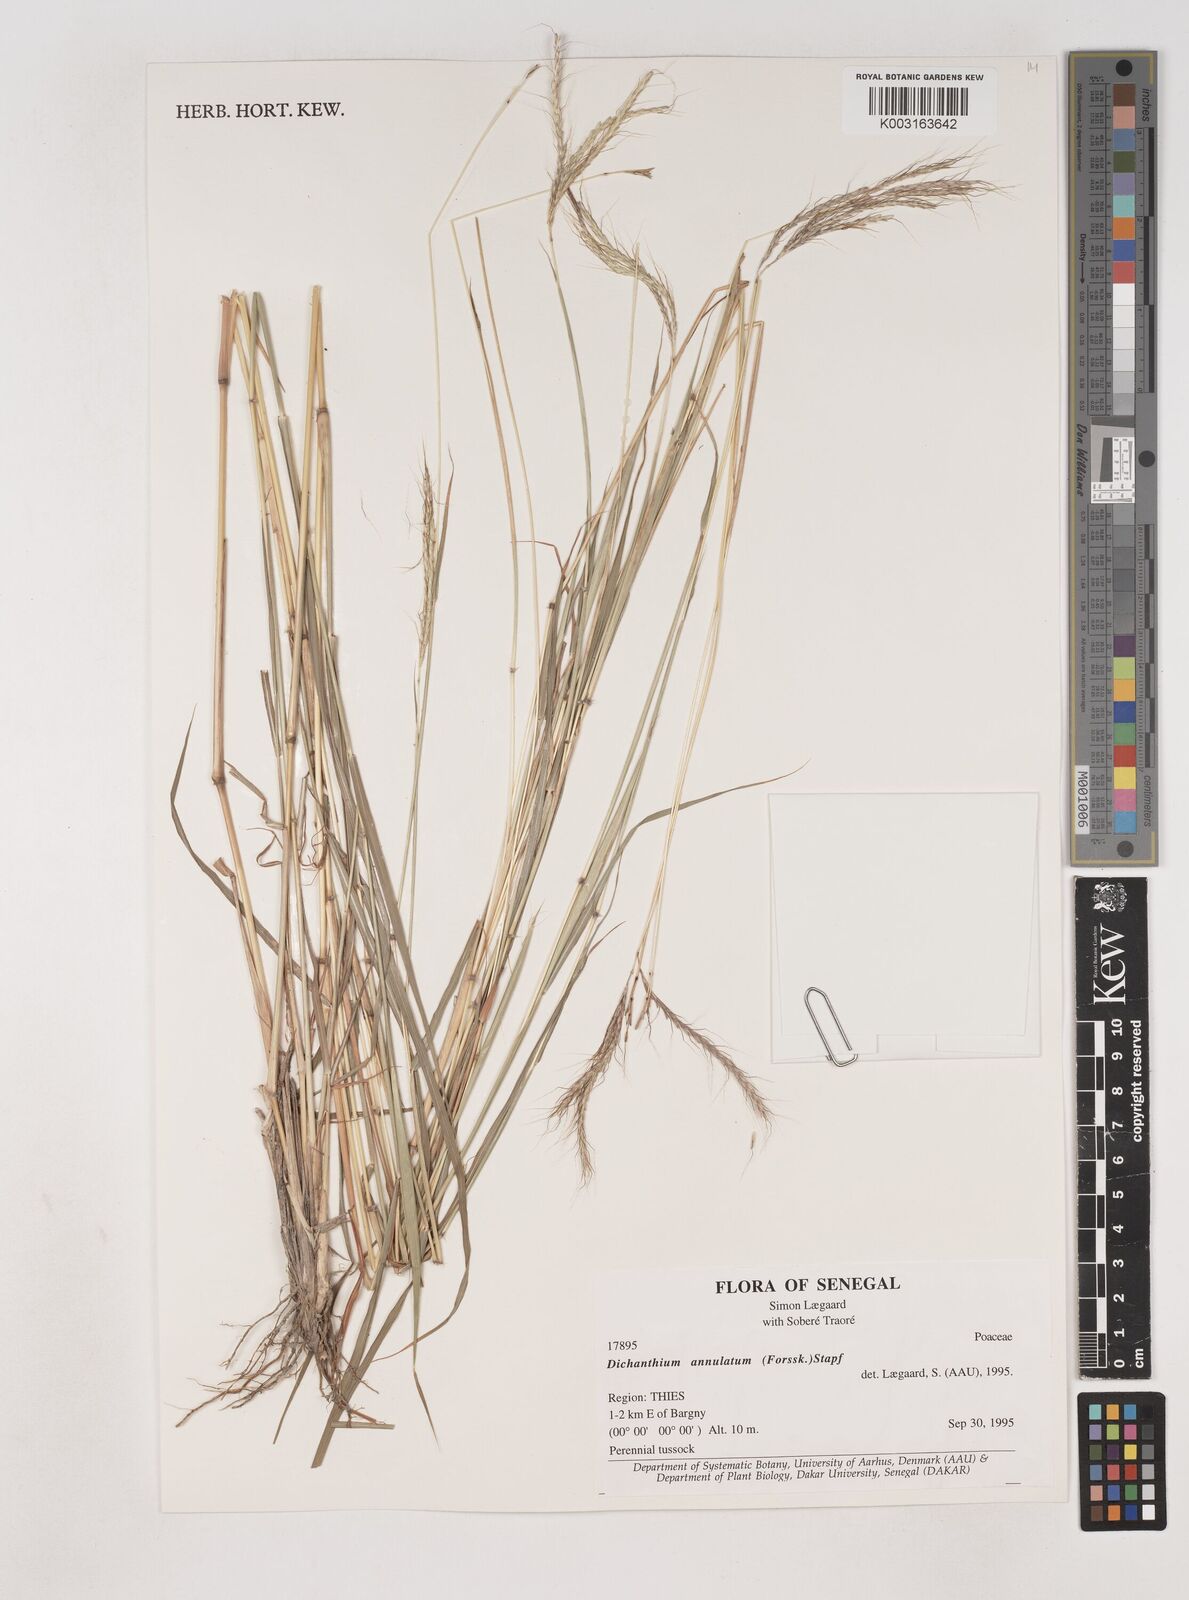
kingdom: Plantae
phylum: Tracheophyta
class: Liliopsida
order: Poales
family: Poaceae
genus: Dichanthium
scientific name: Dichanthium annulatum
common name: Kleberg's bluestem
